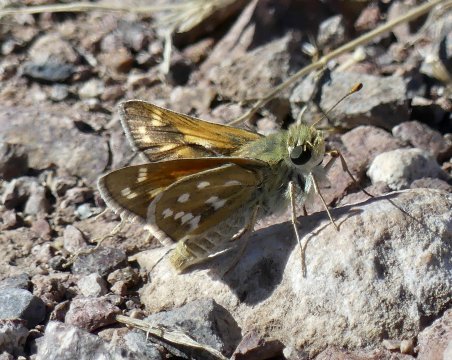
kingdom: Animalia
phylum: Arthropoda
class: Insecta
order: Lepidoptera
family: Hesperiidae
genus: Hesperia
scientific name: Hesperia pahaska
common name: Pahaska Skipper
